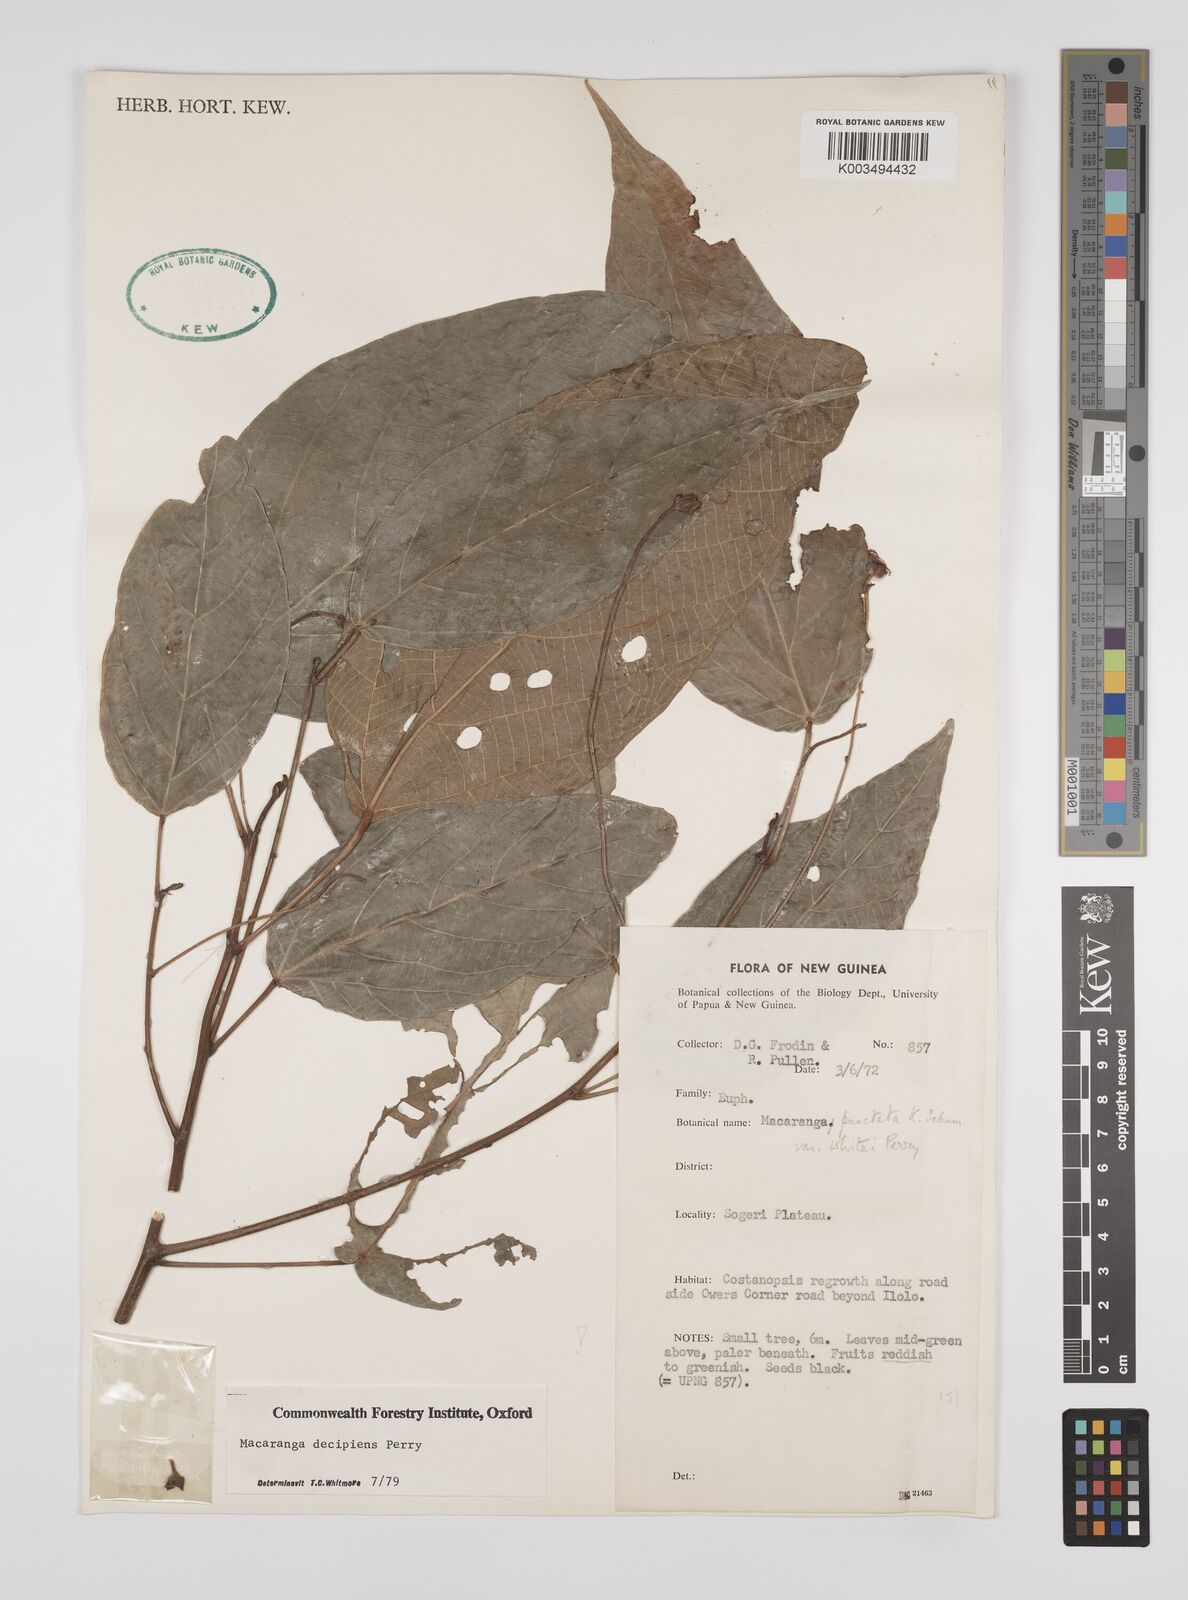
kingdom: Plantae
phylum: Tracheophyta
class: Magnoliopsida
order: Malpighiales
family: Euphorbiaceae
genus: Macaranga
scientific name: Macaranga punctata
